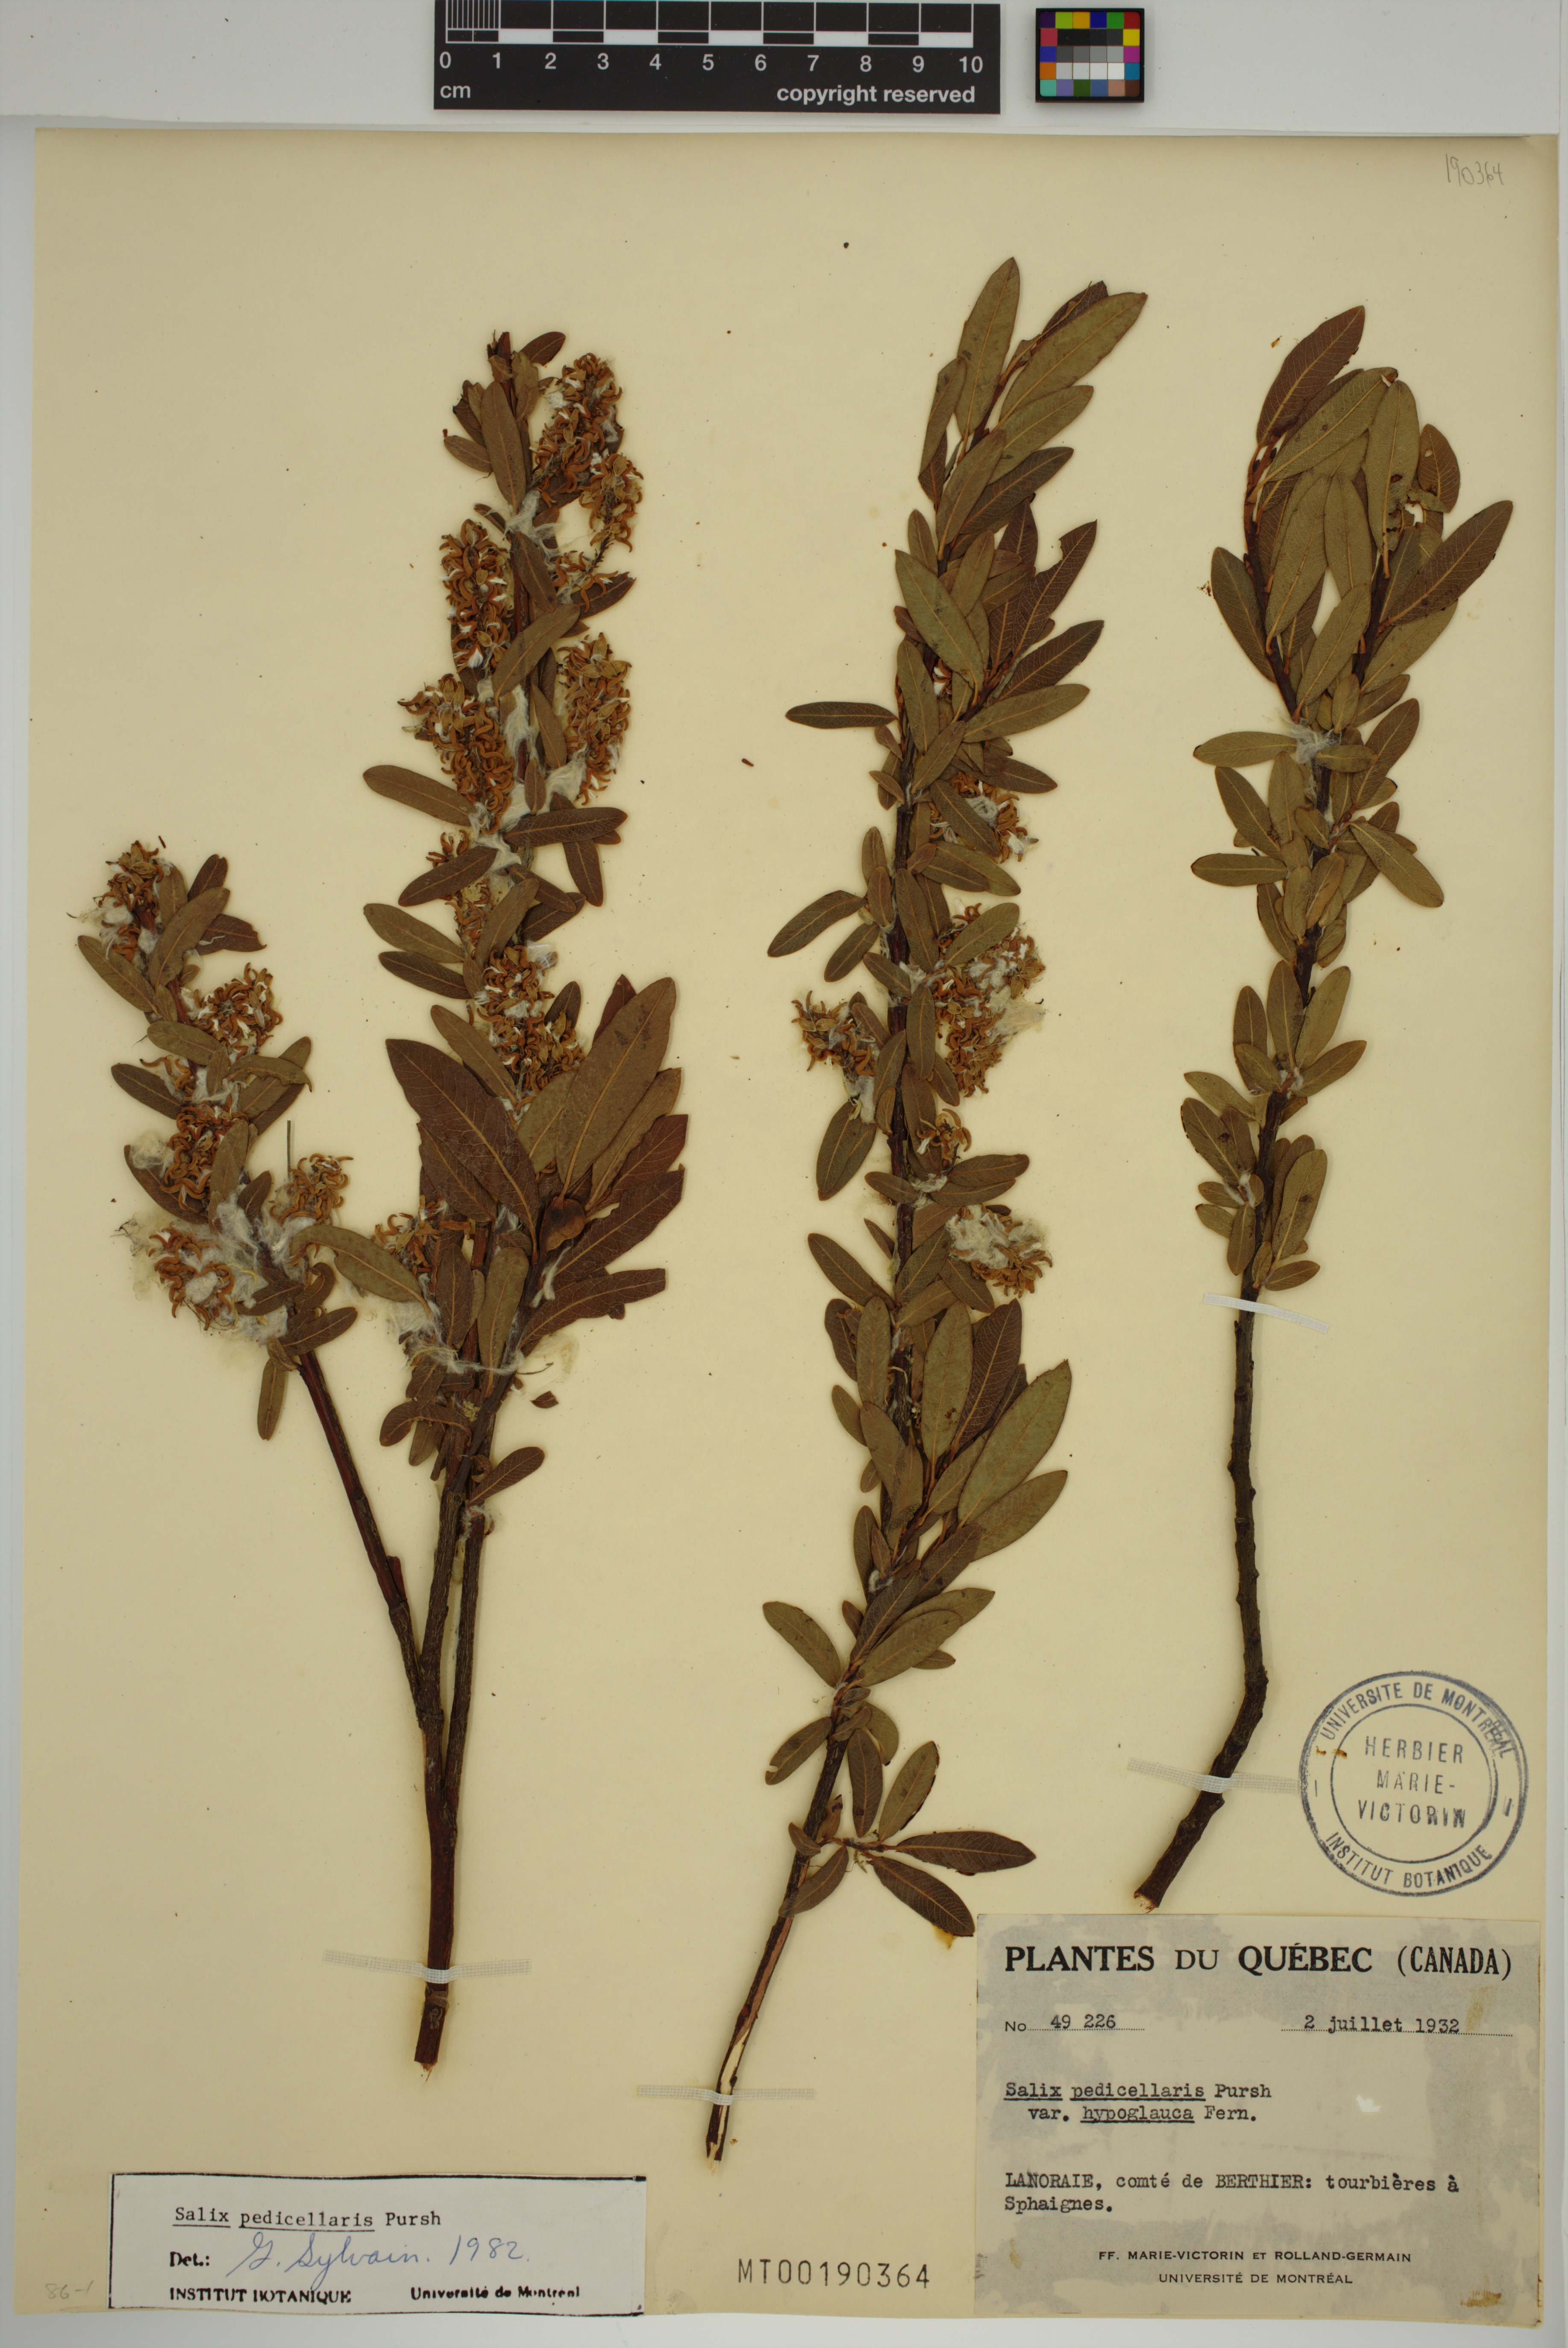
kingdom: Plantae
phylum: Tracheophyta
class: Magnoliopsida
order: Malpighiales
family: Salicaceae
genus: Salix
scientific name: Salix pedicellaris
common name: Bog willow
